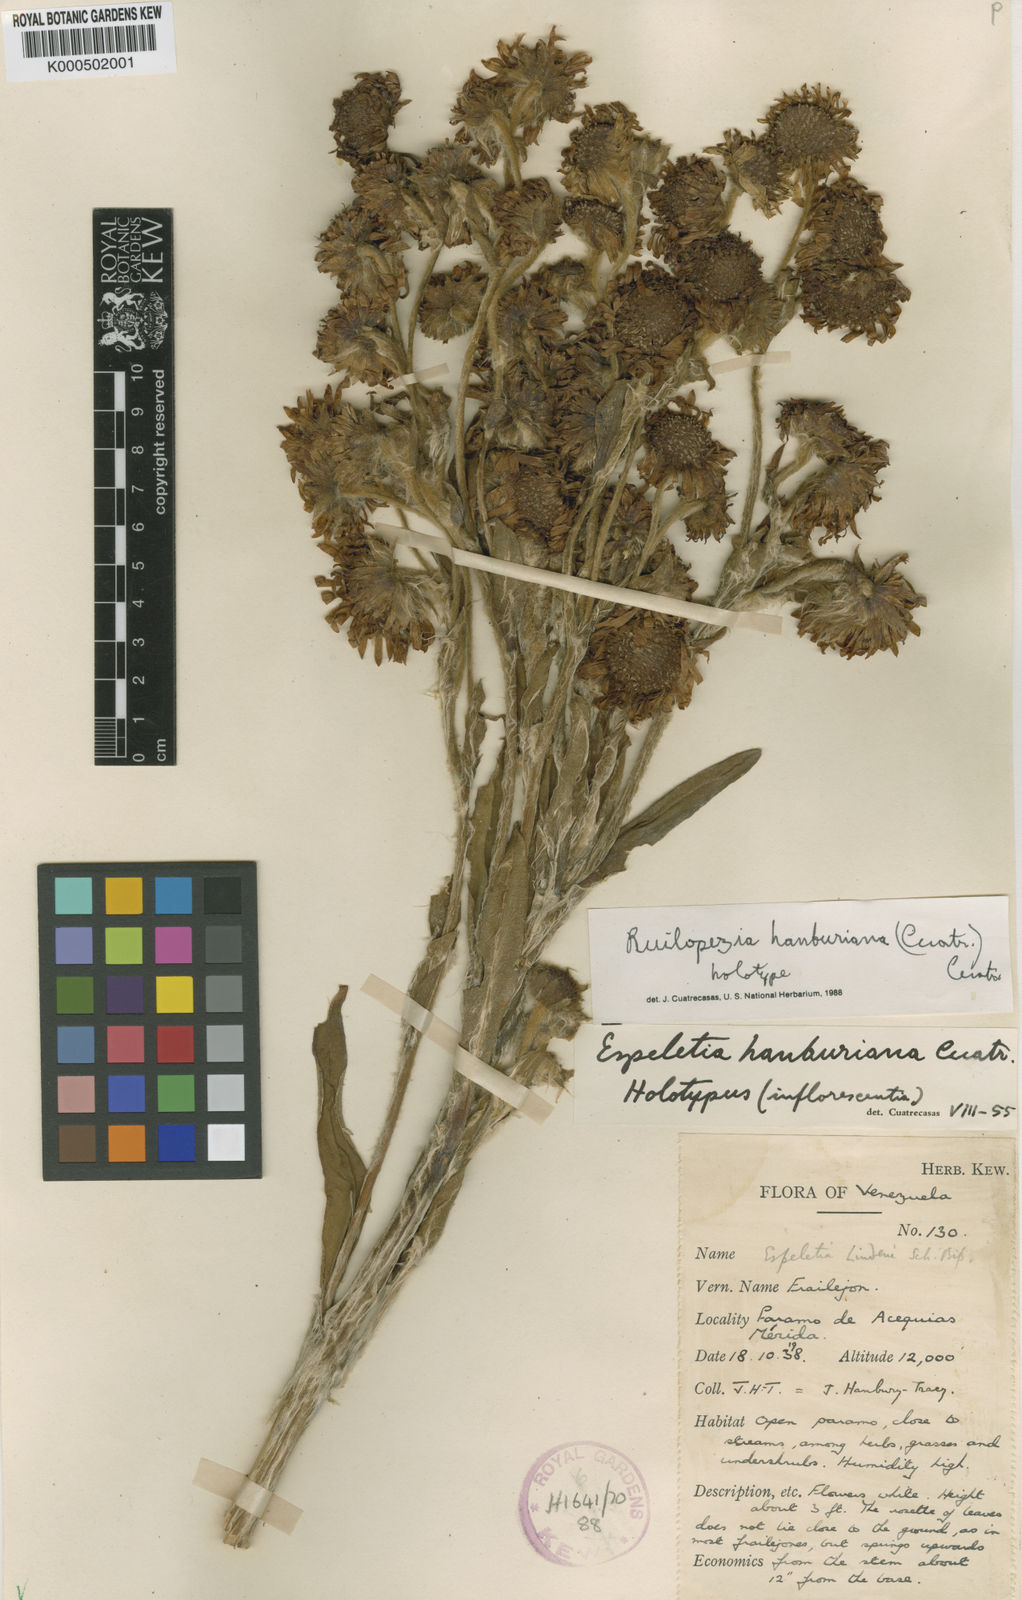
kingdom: Plantae
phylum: Tracheophyta
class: Magnoliopsida
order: Asterales
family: Asteraceae
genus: Espeletia
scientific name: Espeletia
